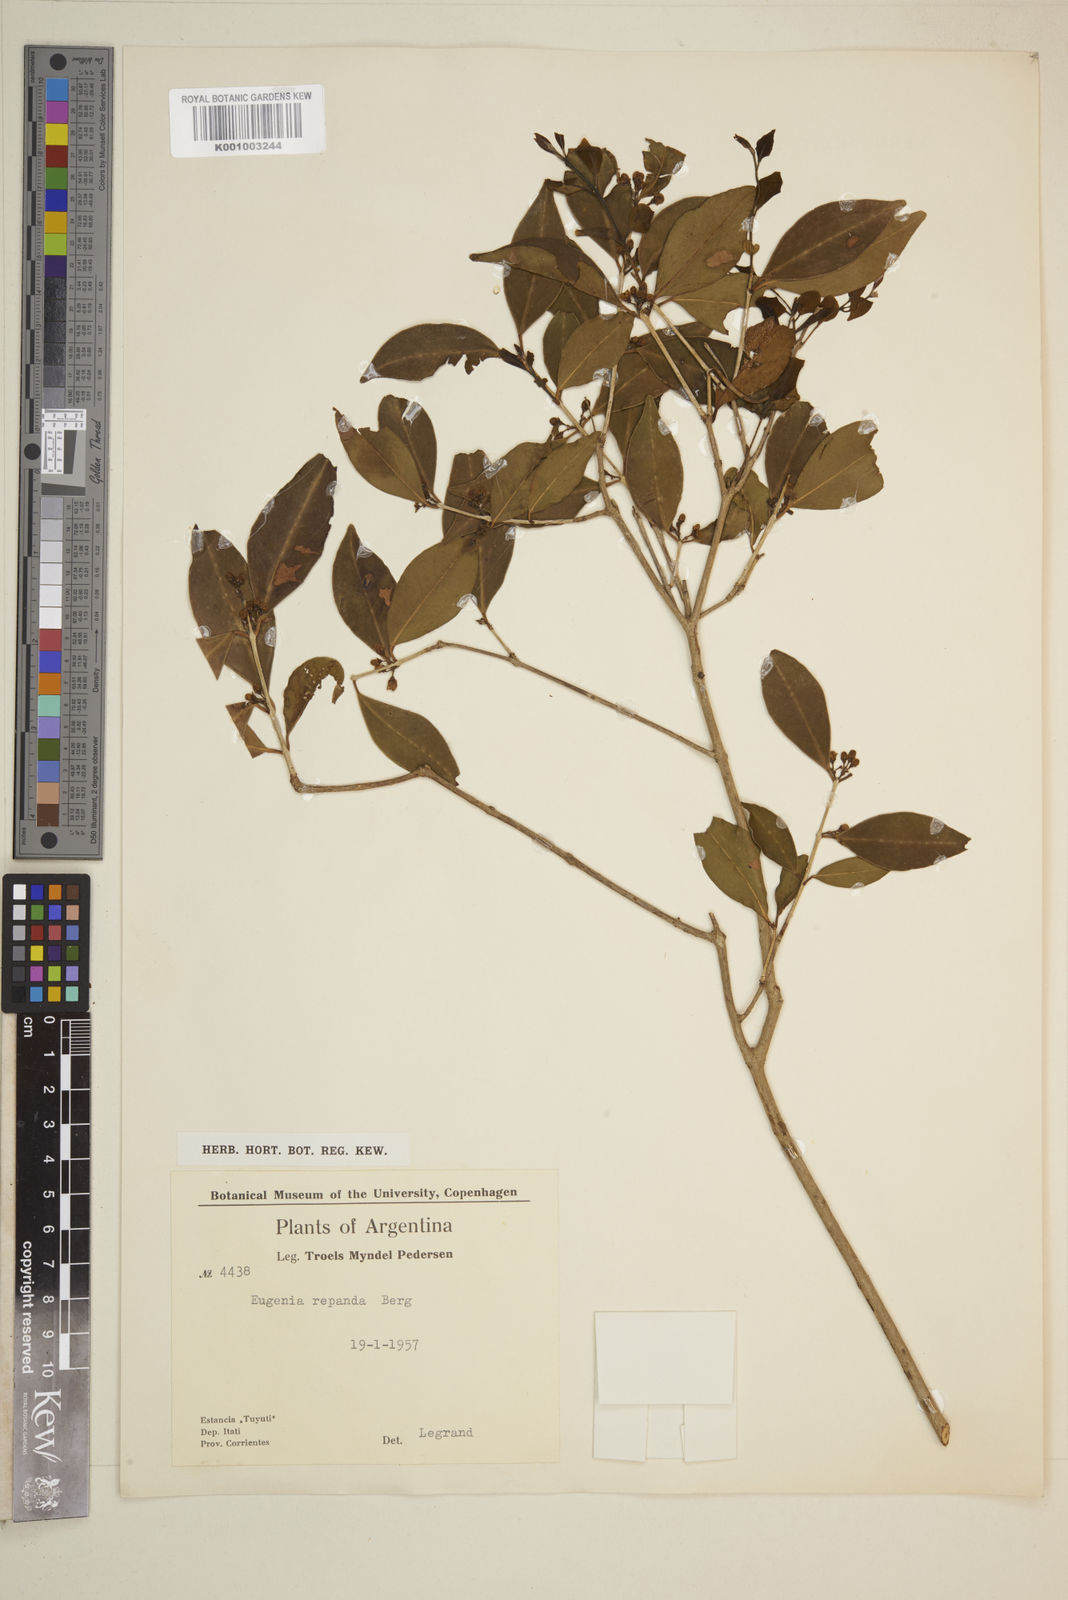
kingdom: Plantae
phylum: Tracheophyta
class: Magnoliopsida
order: Myrtales
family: Myrtaceae
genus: Eugenia
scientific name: Eugenia repanda
